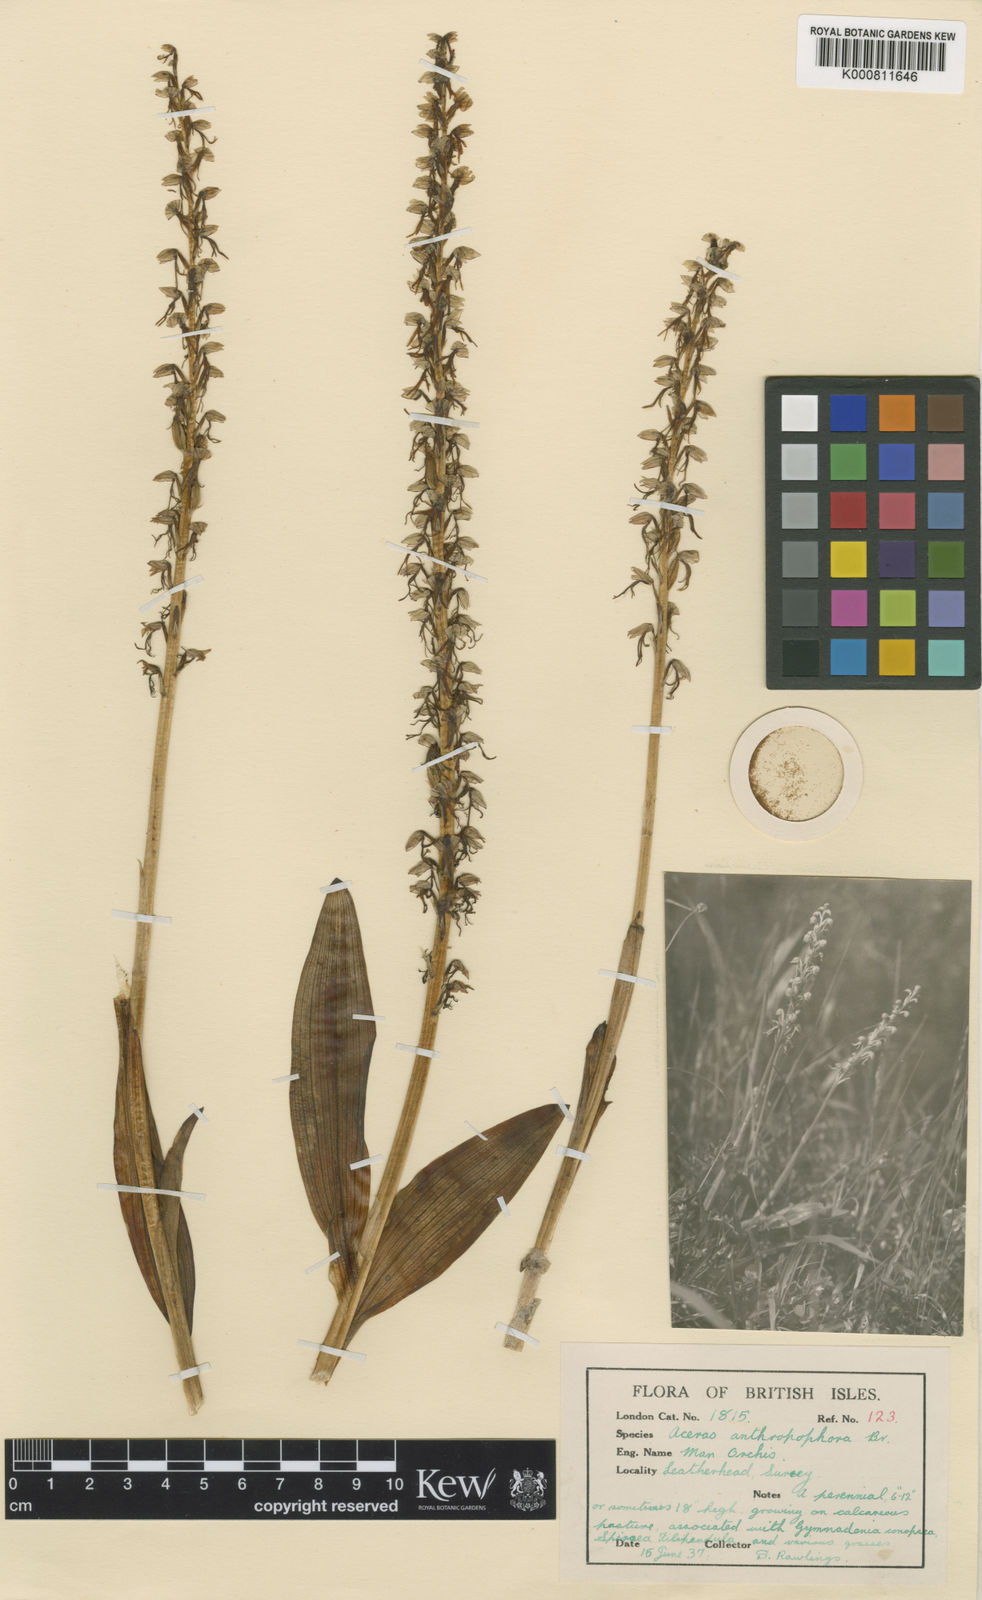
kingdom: Plantae
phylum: Tracheophyta
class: Liliopsida
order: Asparagales
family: Orchidaceae
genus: Orchis
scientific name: Orchis
